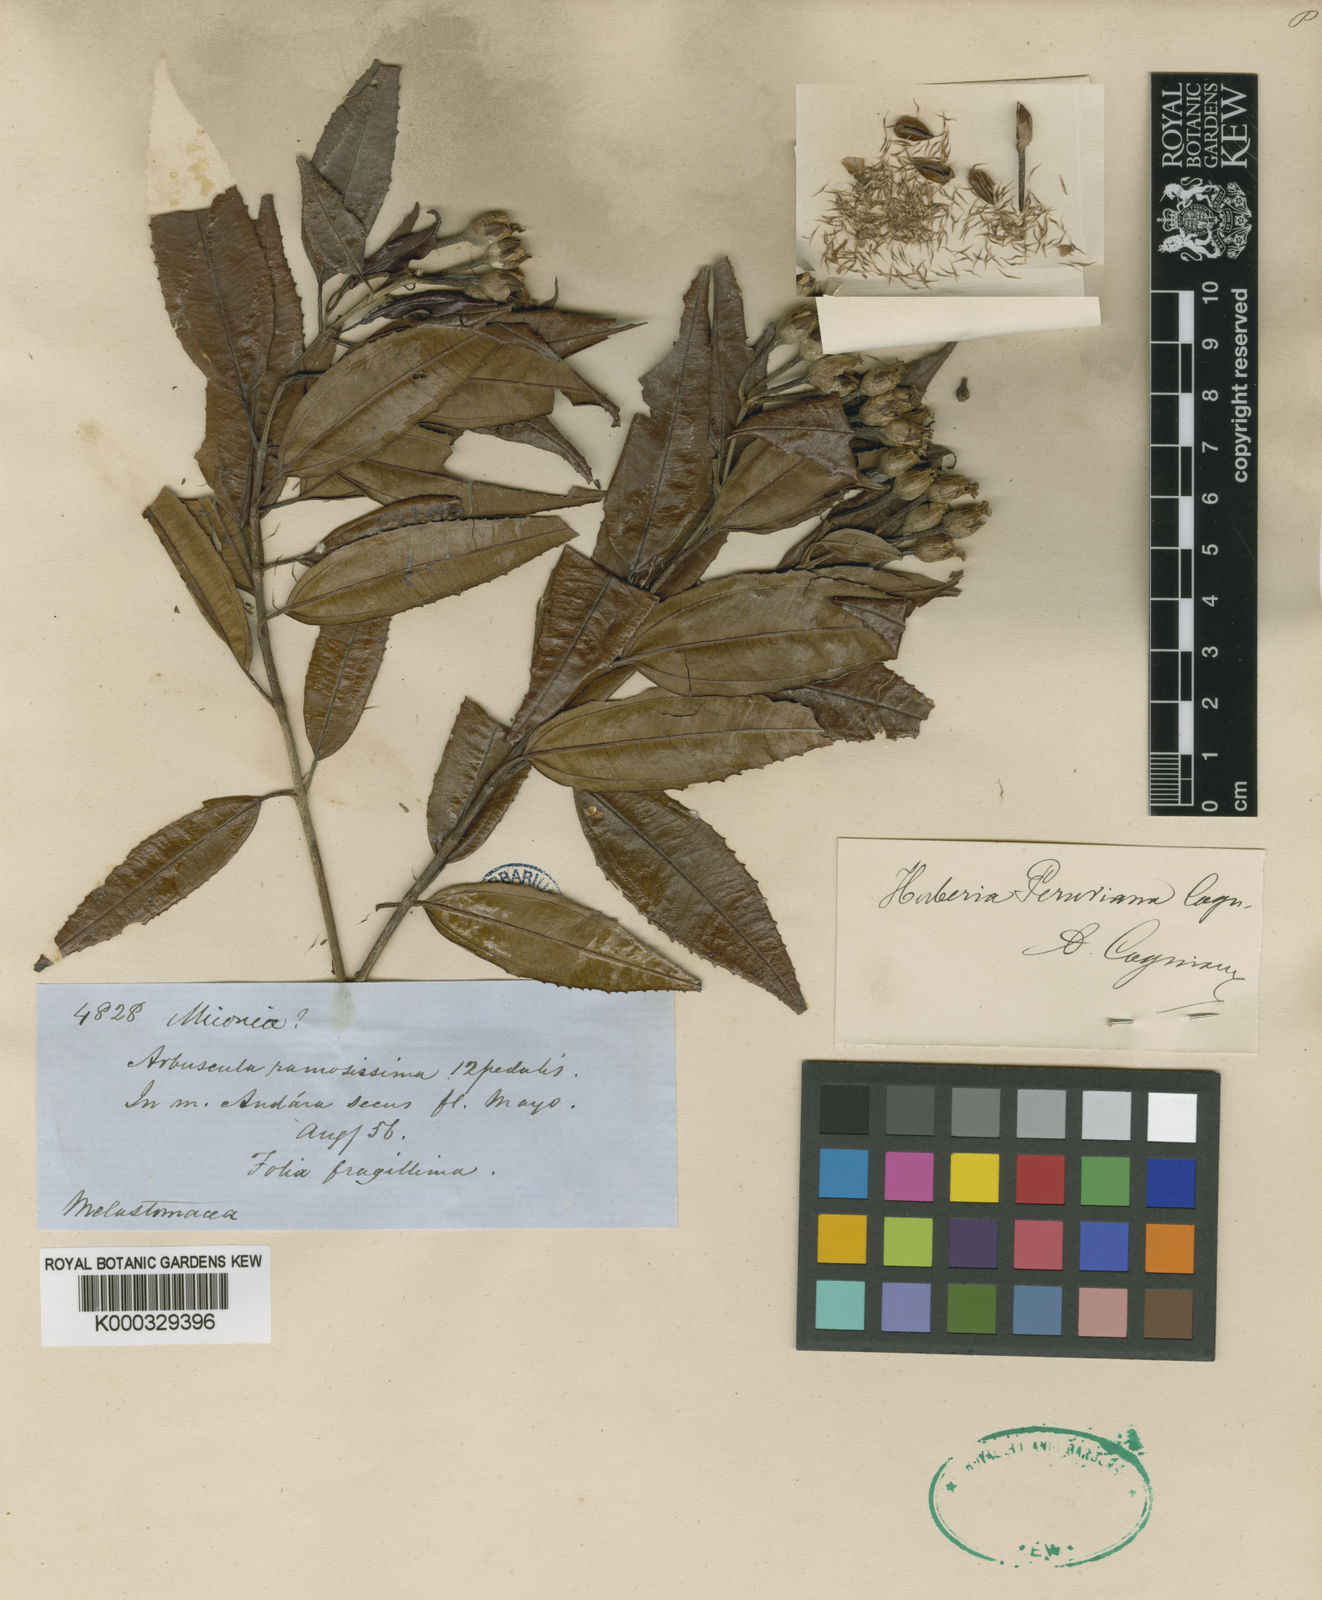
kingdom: Plantae
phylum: Tracheophyta
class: Magnoliopsida
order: Myrtales
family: Melastomataceae
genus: Huberia
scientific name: Huberia peruviana
